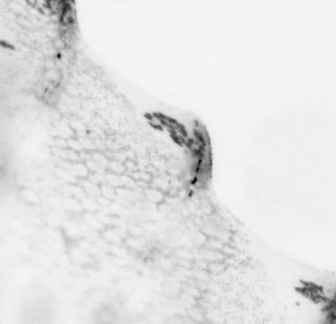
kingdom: Animalia
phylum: Chordata
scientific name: Chordata
